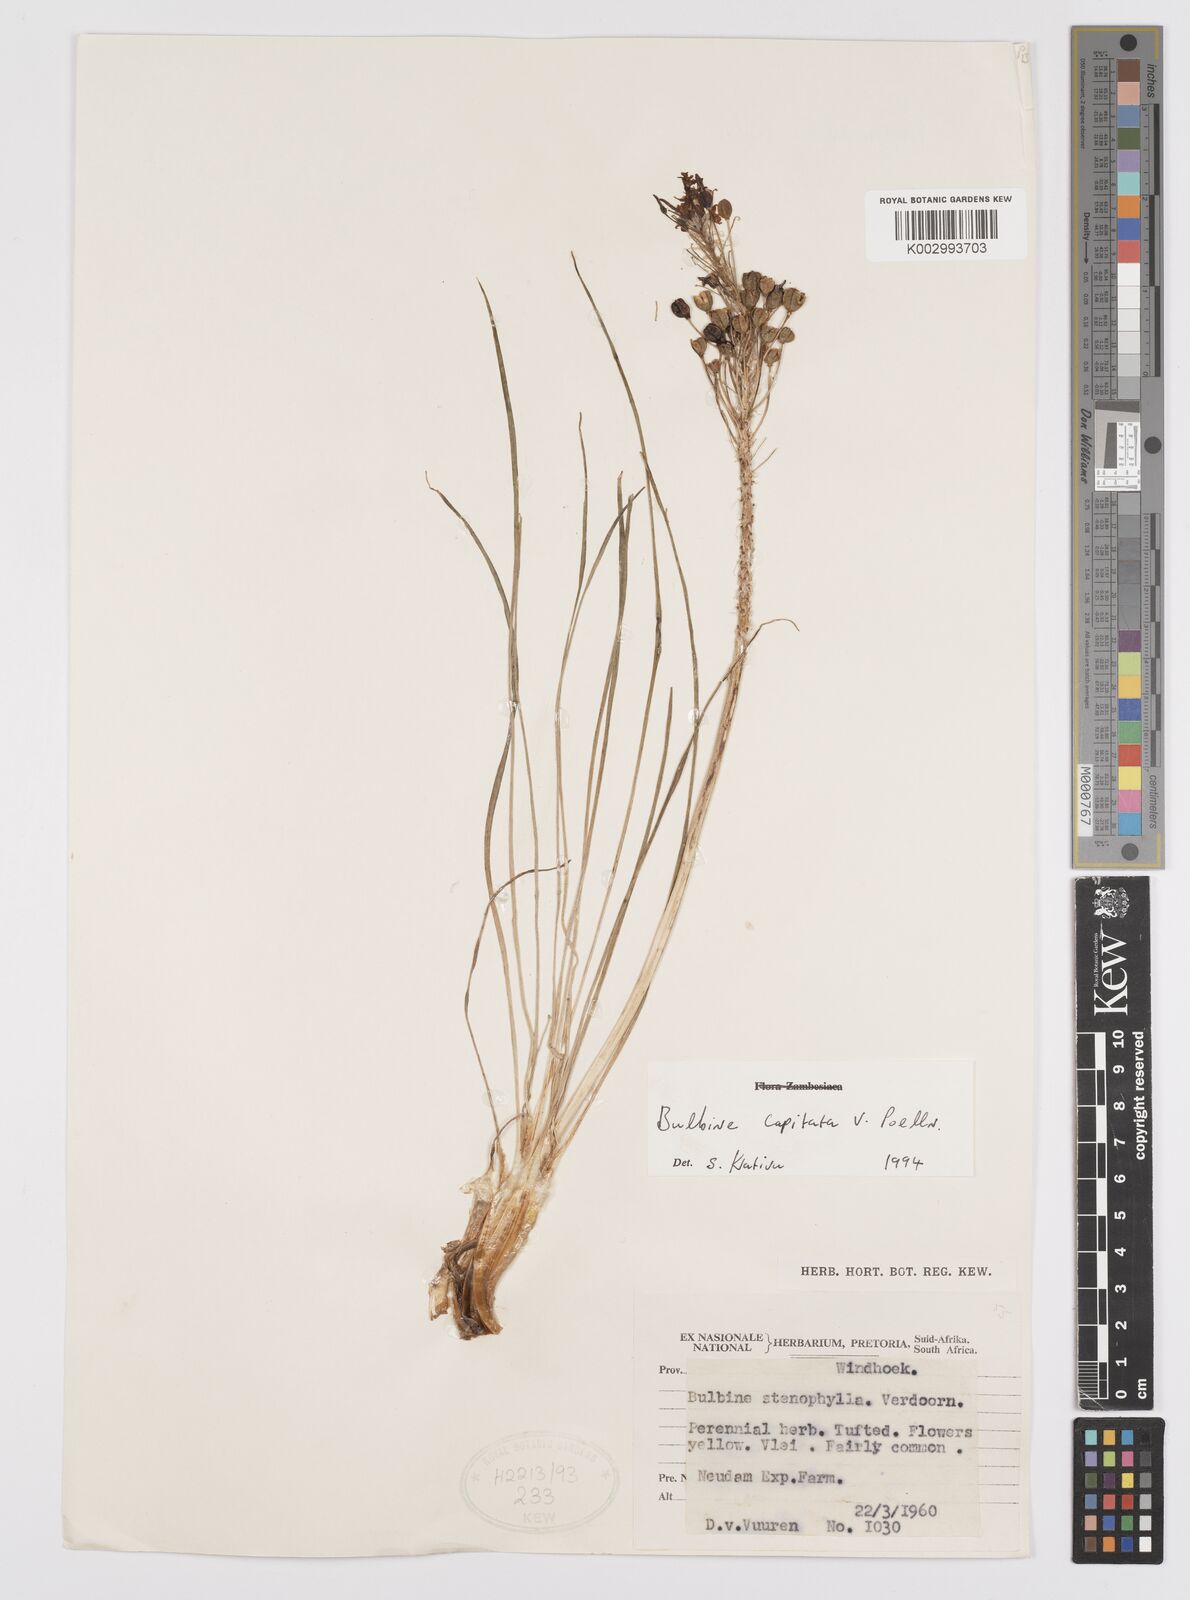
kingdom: Plantae
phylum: Tracheophyta
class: Liliopsida
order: Asparagales
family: Asphodelaceae
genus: Bulbine
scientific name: Bulbine capitata
